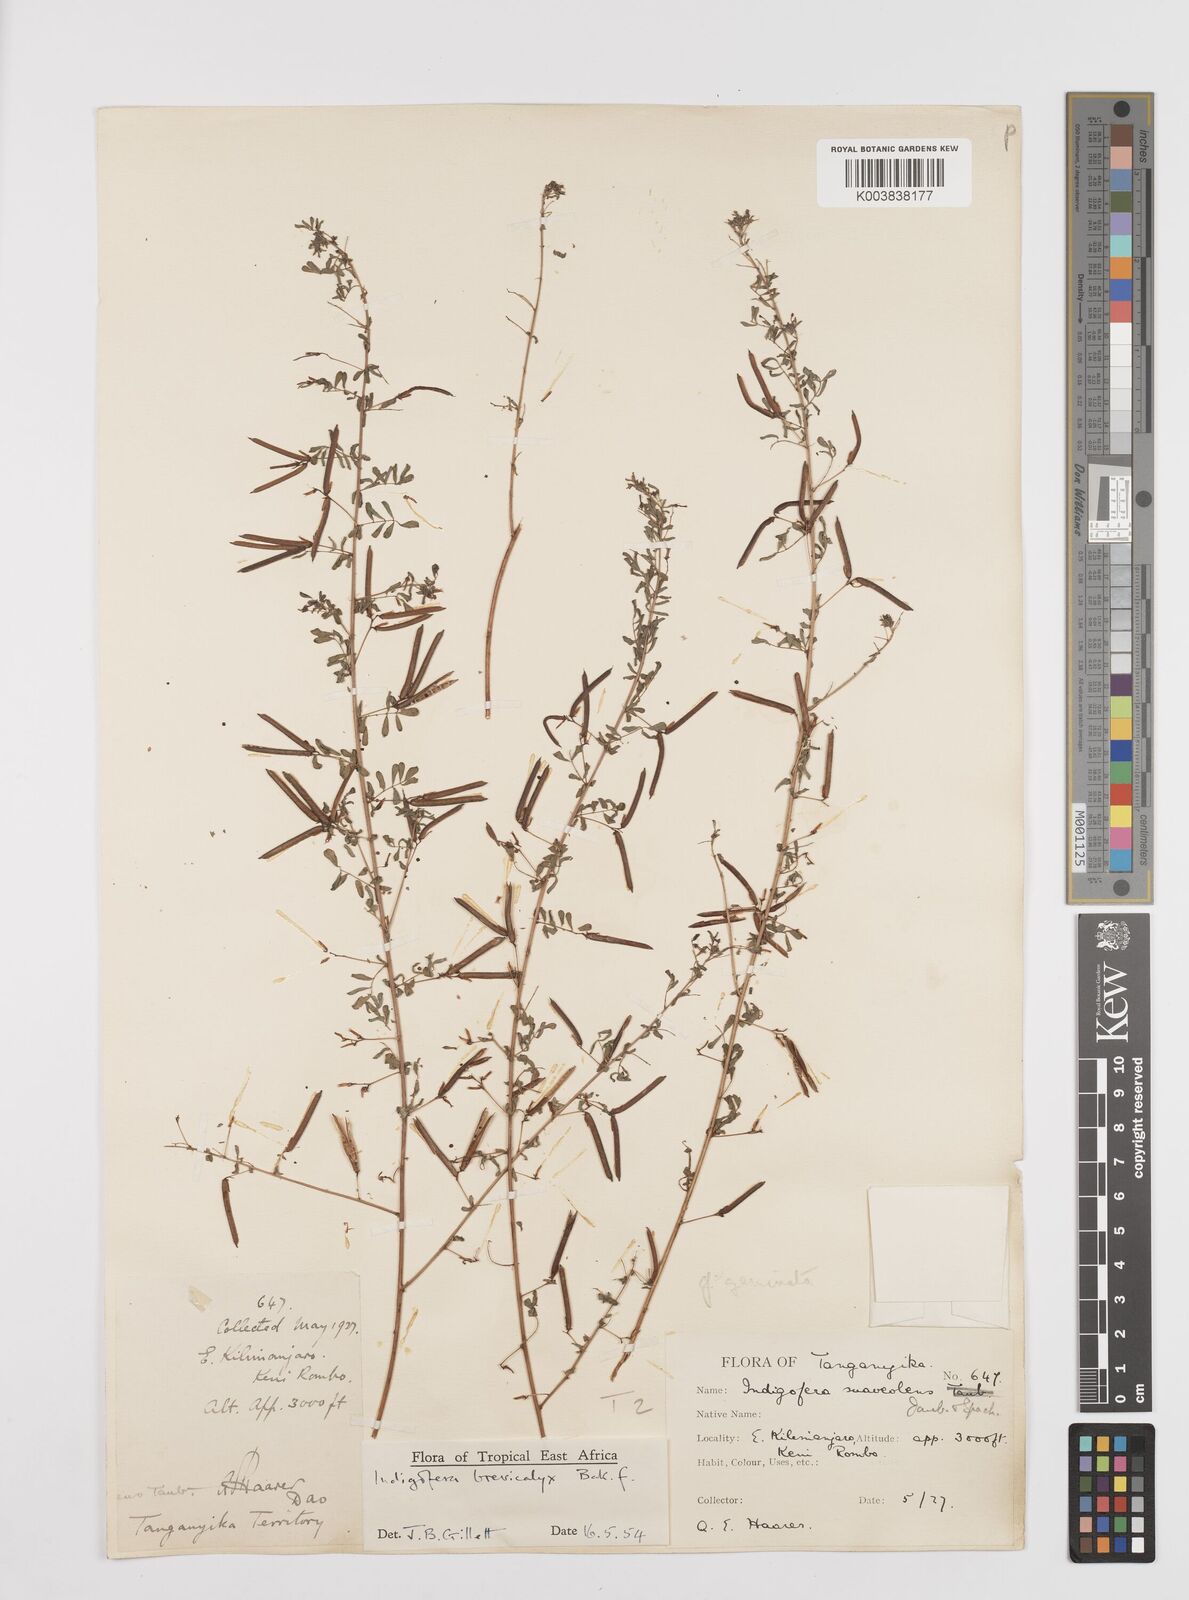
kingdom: Plantae
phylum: Tracheophyta
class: Magnoliopsida
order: Fabales
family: Fabaceae
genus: Indigofera
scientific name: Indigofera brevicalyx
